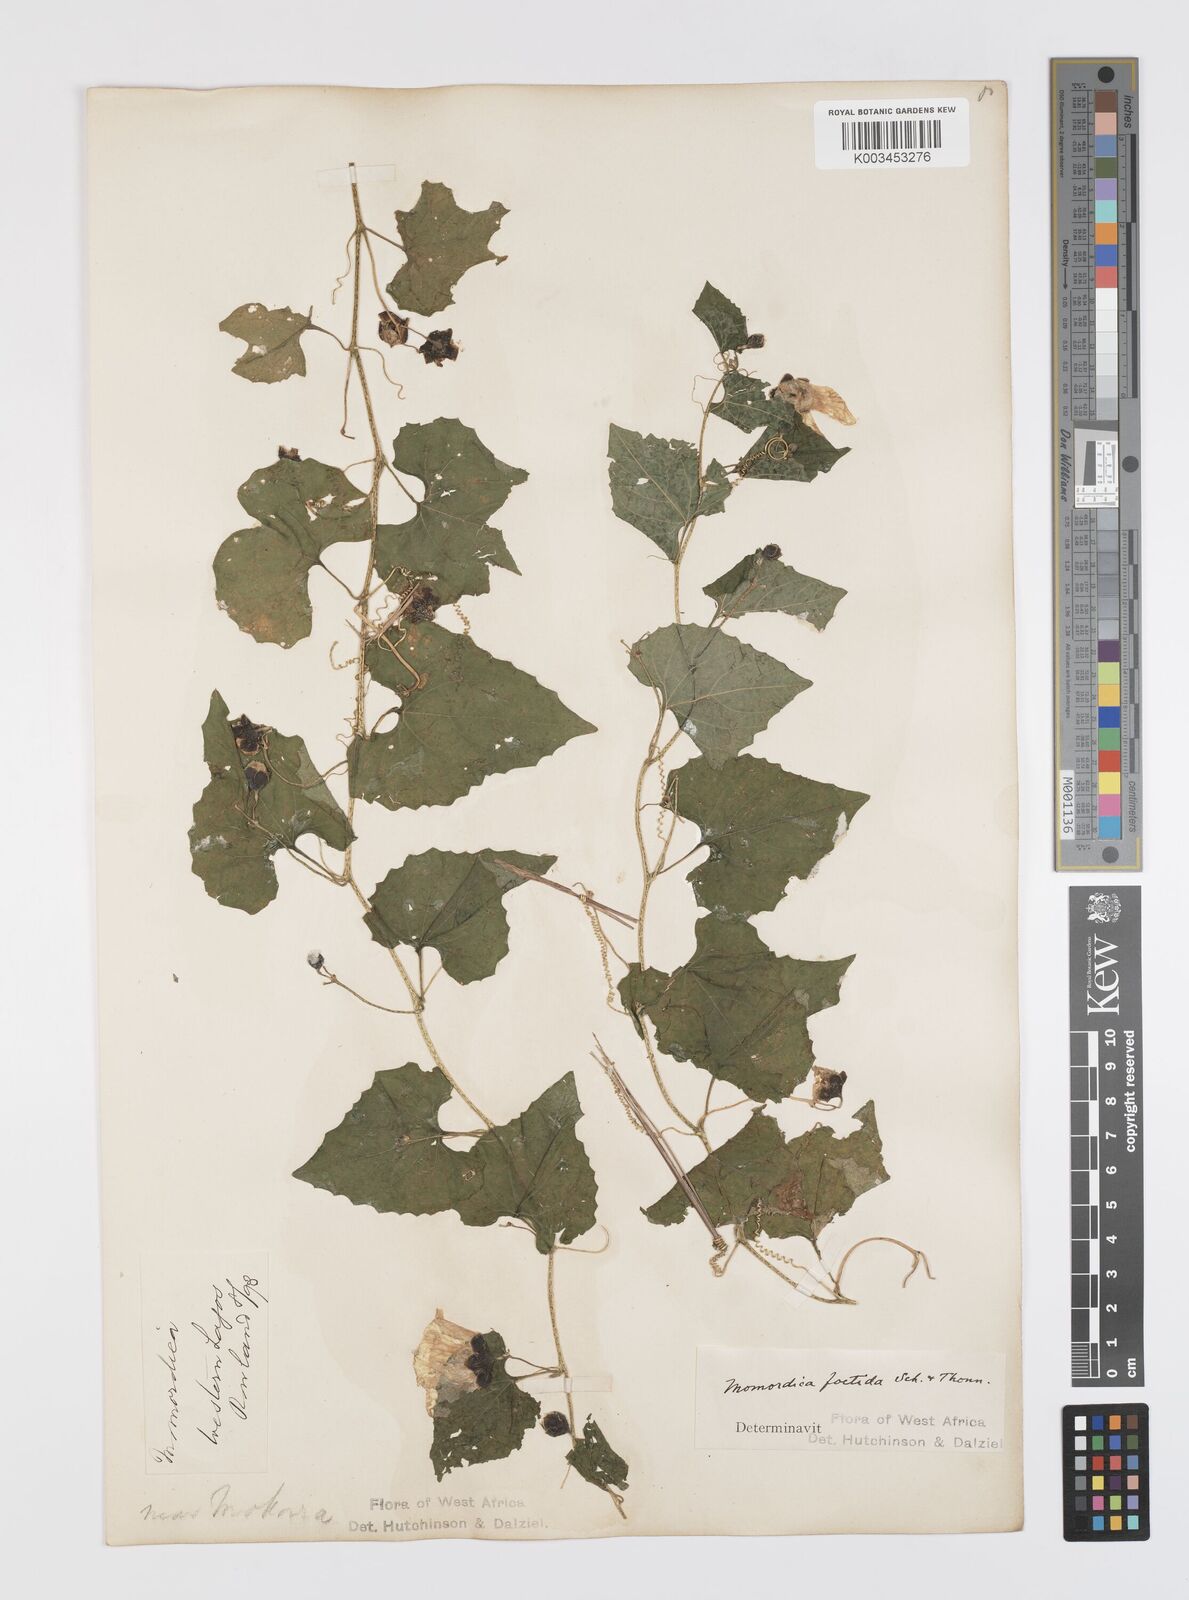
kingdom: Plantae
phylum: Tracheophyta
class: Magnoliopsida
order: Cucurbitales
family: Cucurbitaceae
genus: Momordica
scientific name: Momordica foetida
